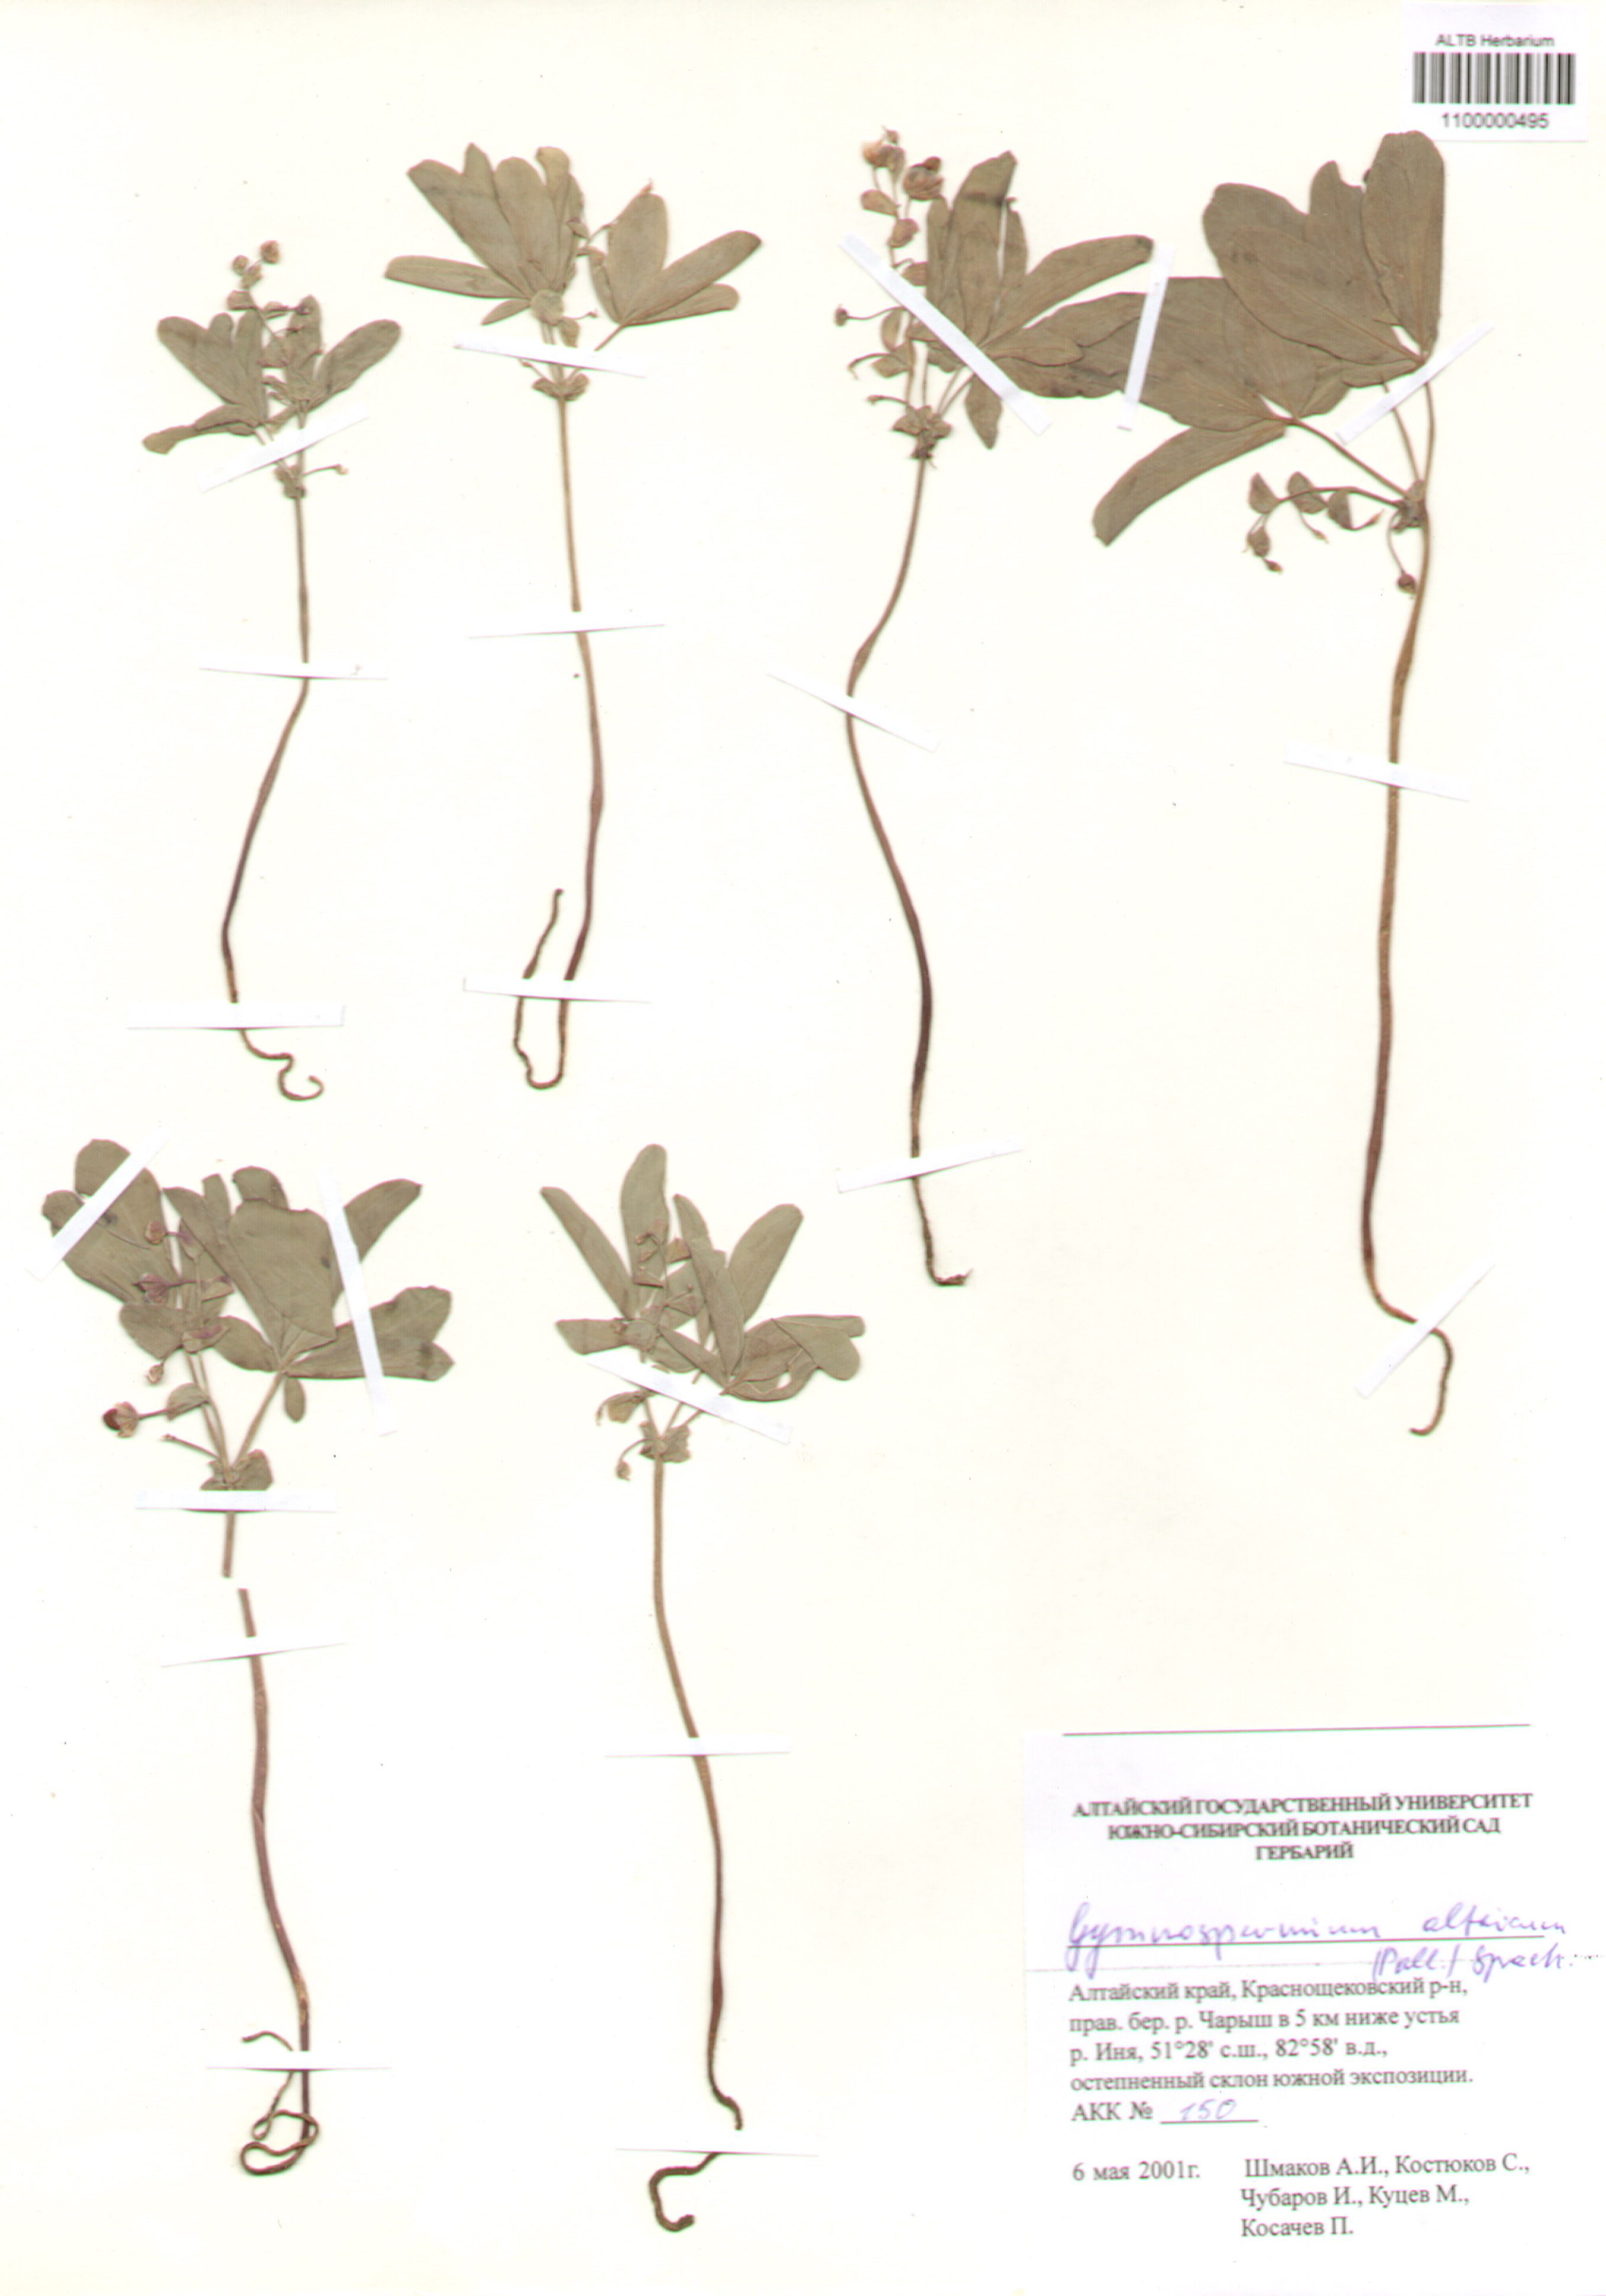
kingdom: Plantae
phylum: Tracheophyta
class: Magnoliopsida
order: Ranunculales
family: Berberidaceae
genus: Gymnospermium
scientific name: Gymnospermium altaicum
